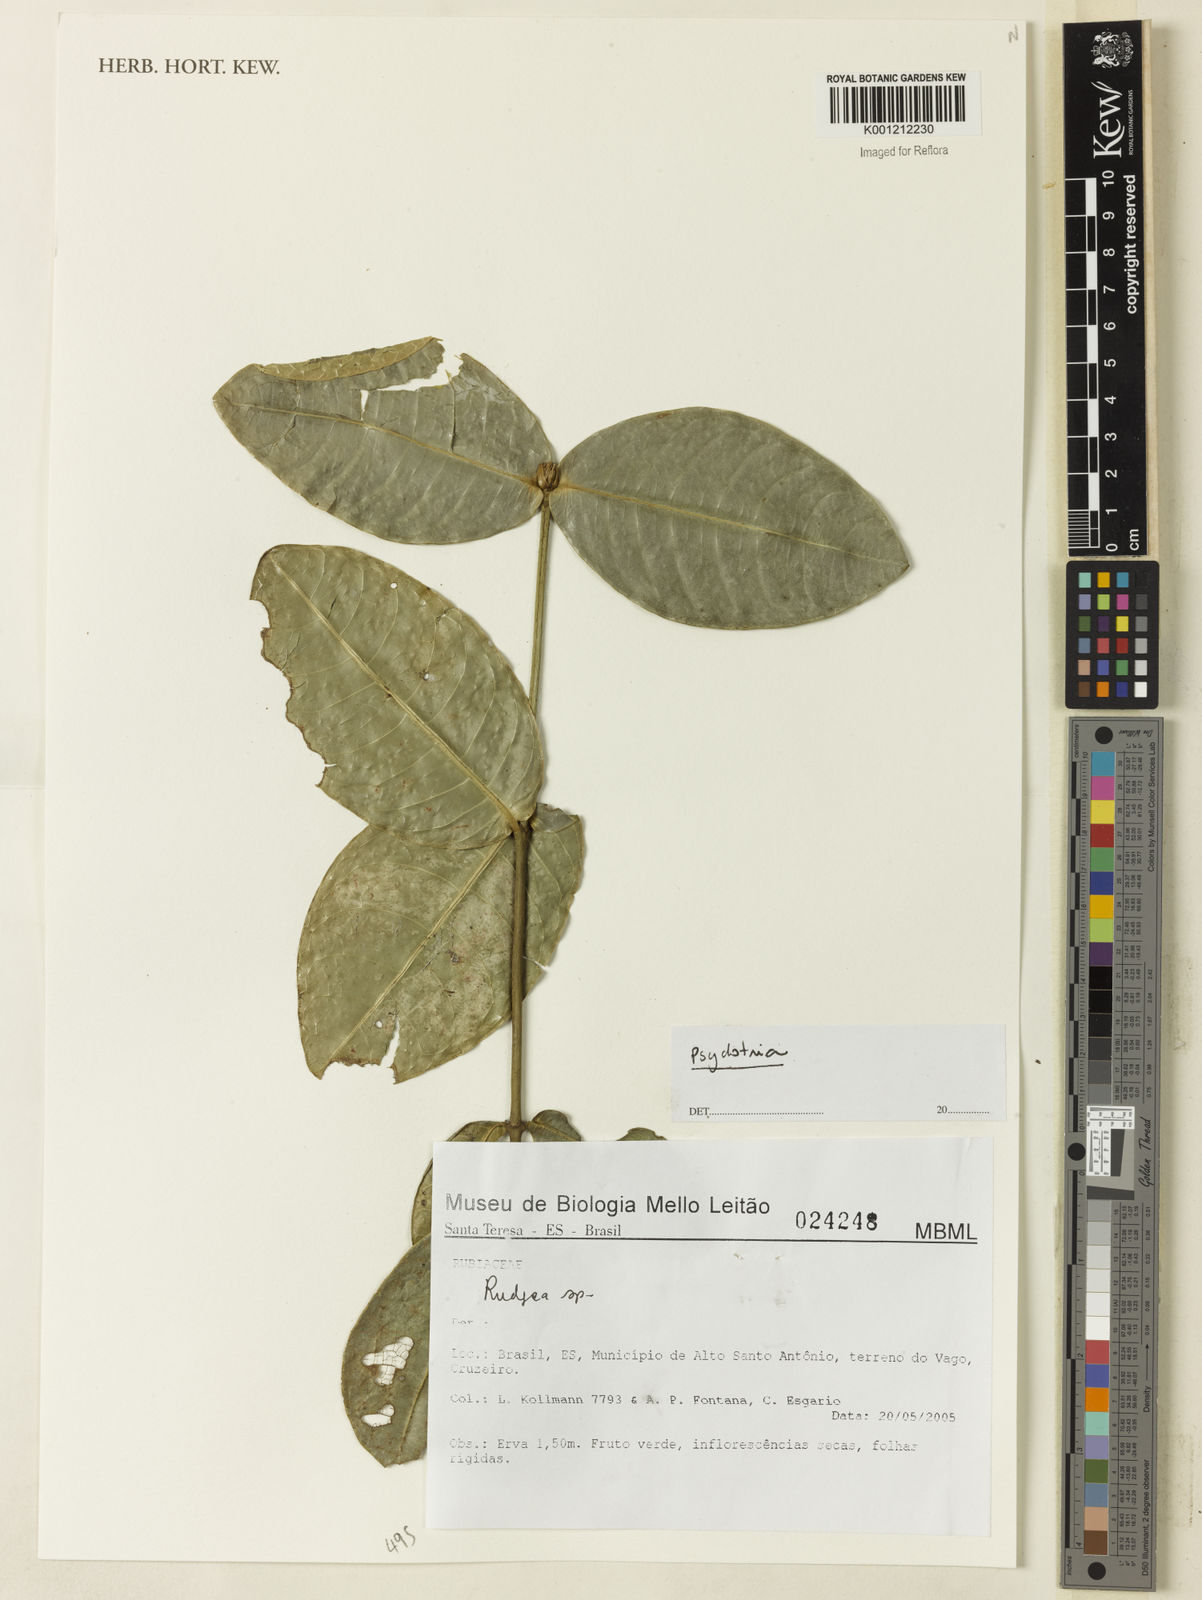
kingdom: Plantae
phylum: Tracheophyta
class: Magnoliopsida
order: Gentianales
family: Rubiaceae
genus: Psychotria
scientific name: Psychotria
